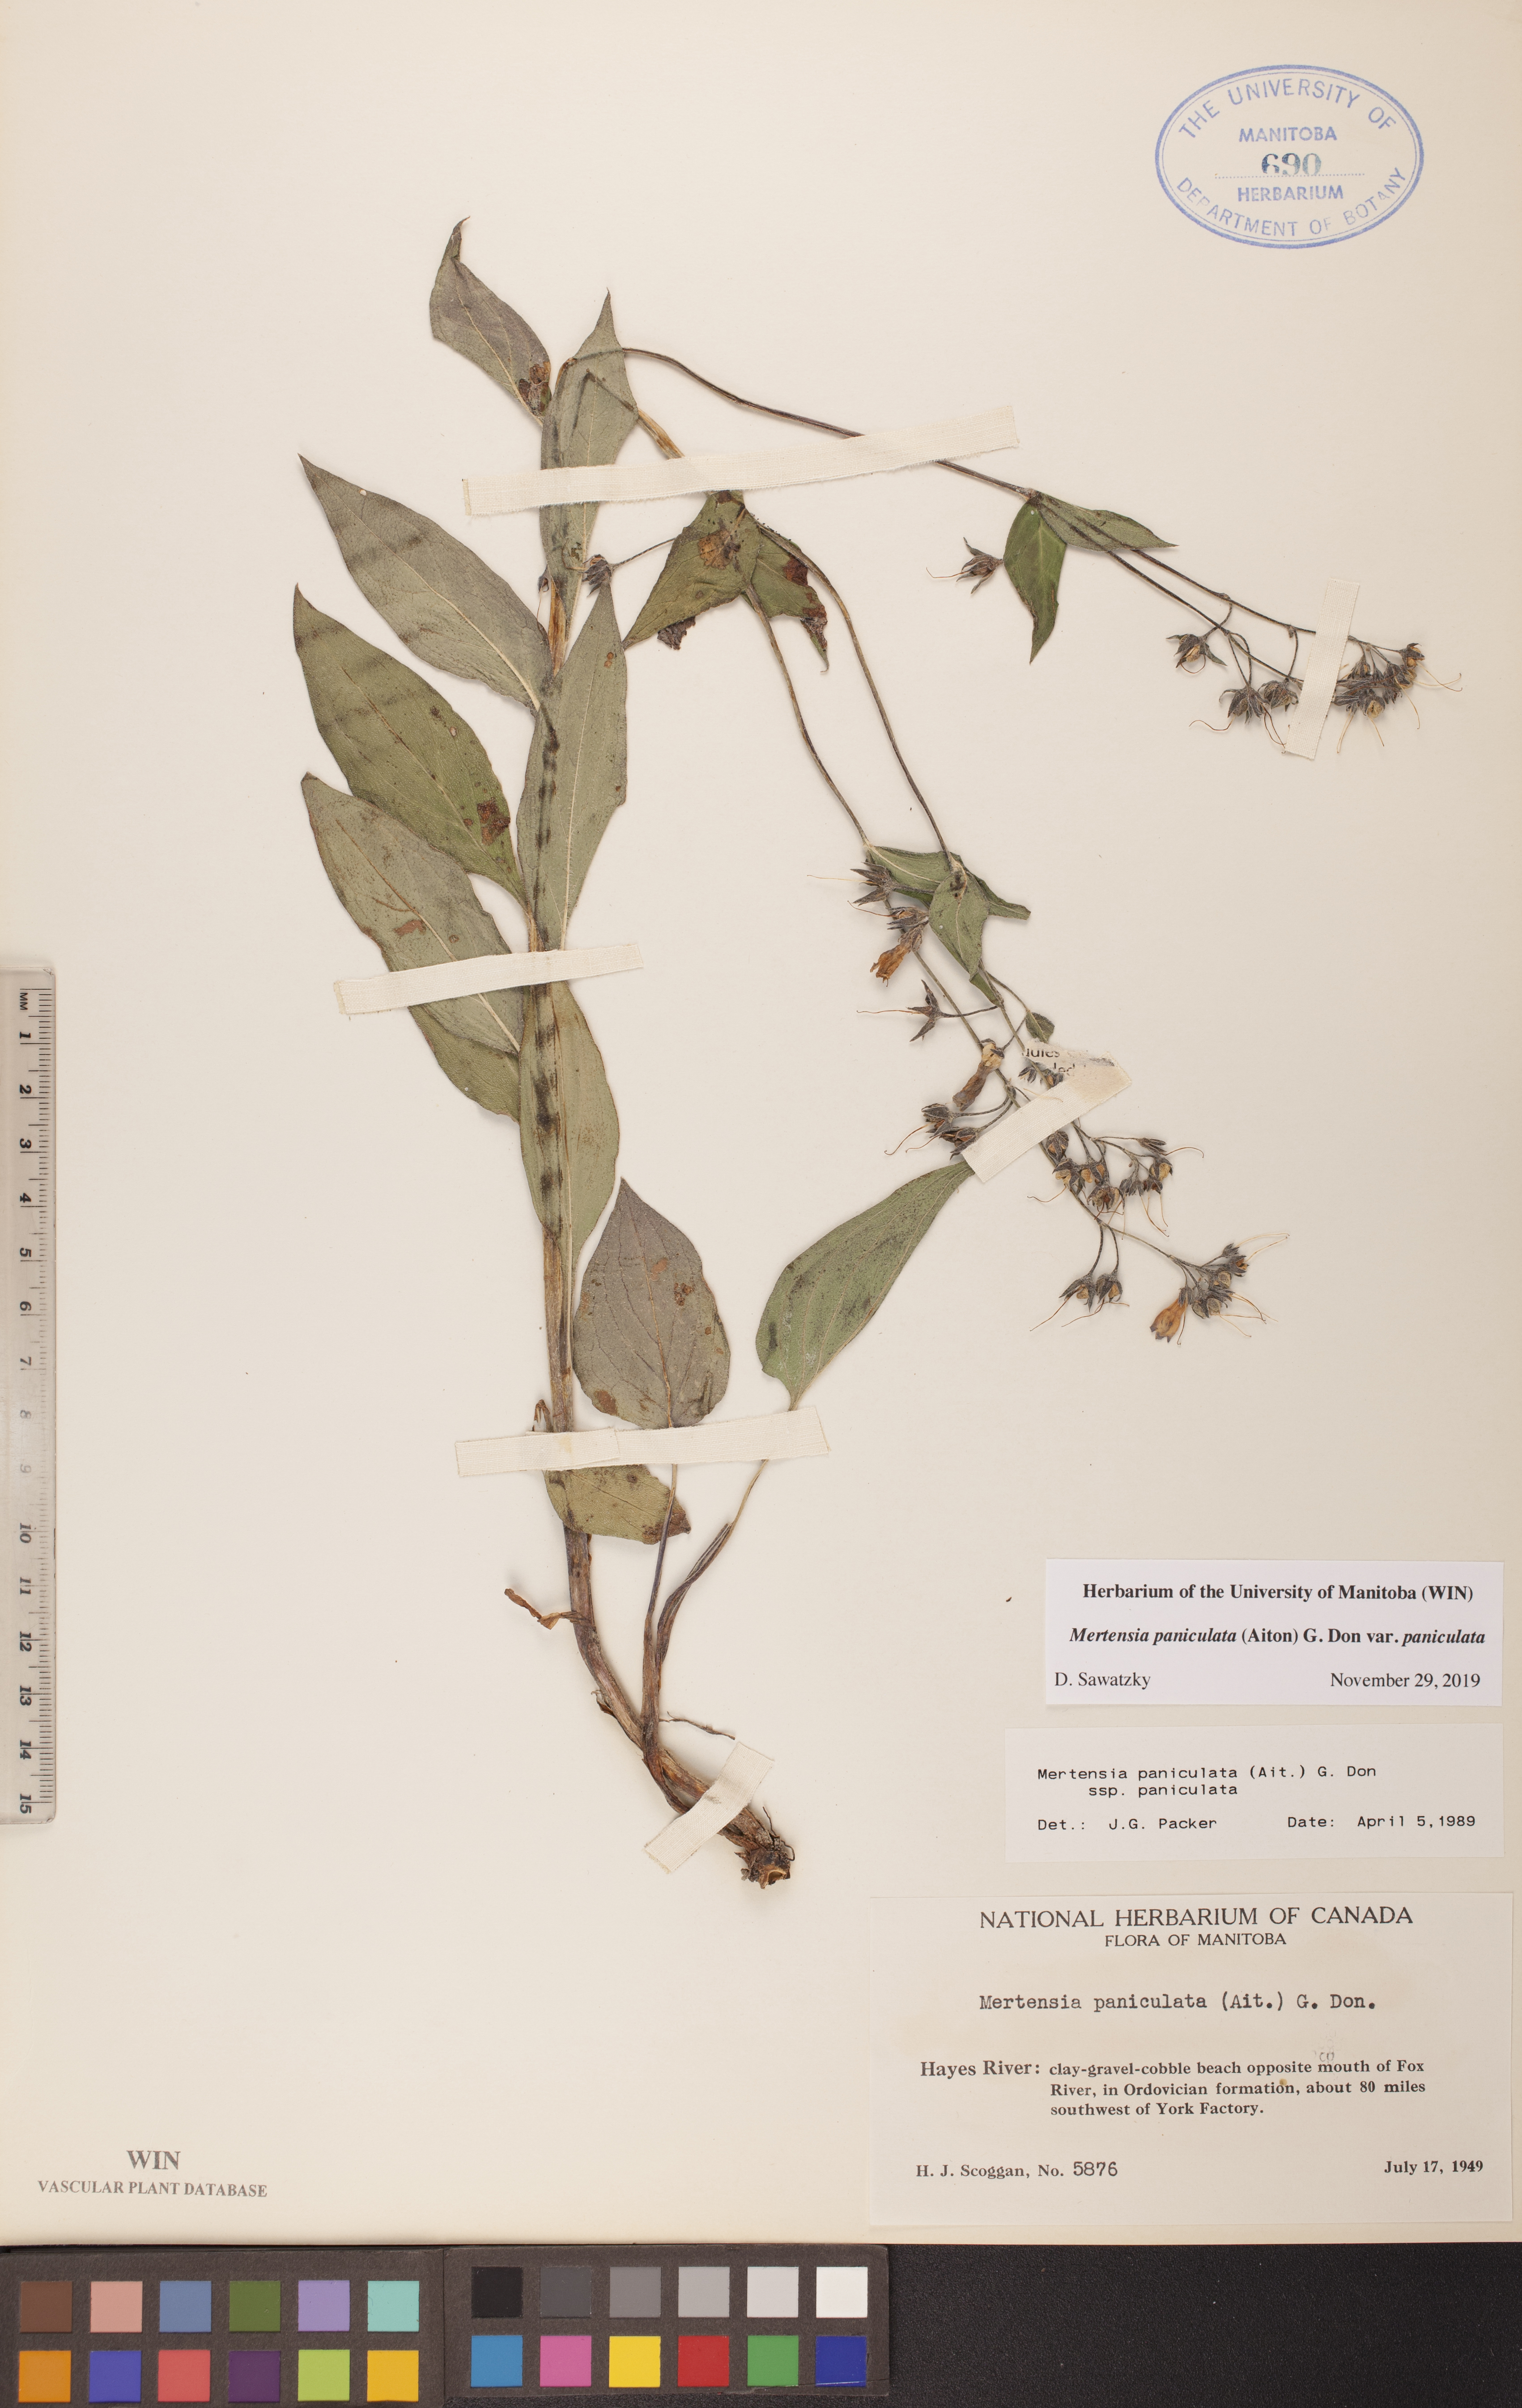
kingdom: Plantae
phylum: Tracheophyta
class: Magnoliopsida
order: Boraginales
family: Boraginaceae
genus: Mertensia
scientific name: Mertensia paniculata
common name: Panicled bluebells
